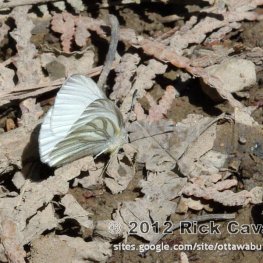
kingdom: Animalia
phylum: Arthropoda
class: Insecta
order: Lepidoptera
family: Pieridae
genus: Pieris
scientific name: Pieris oleracea
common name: Mustard White
